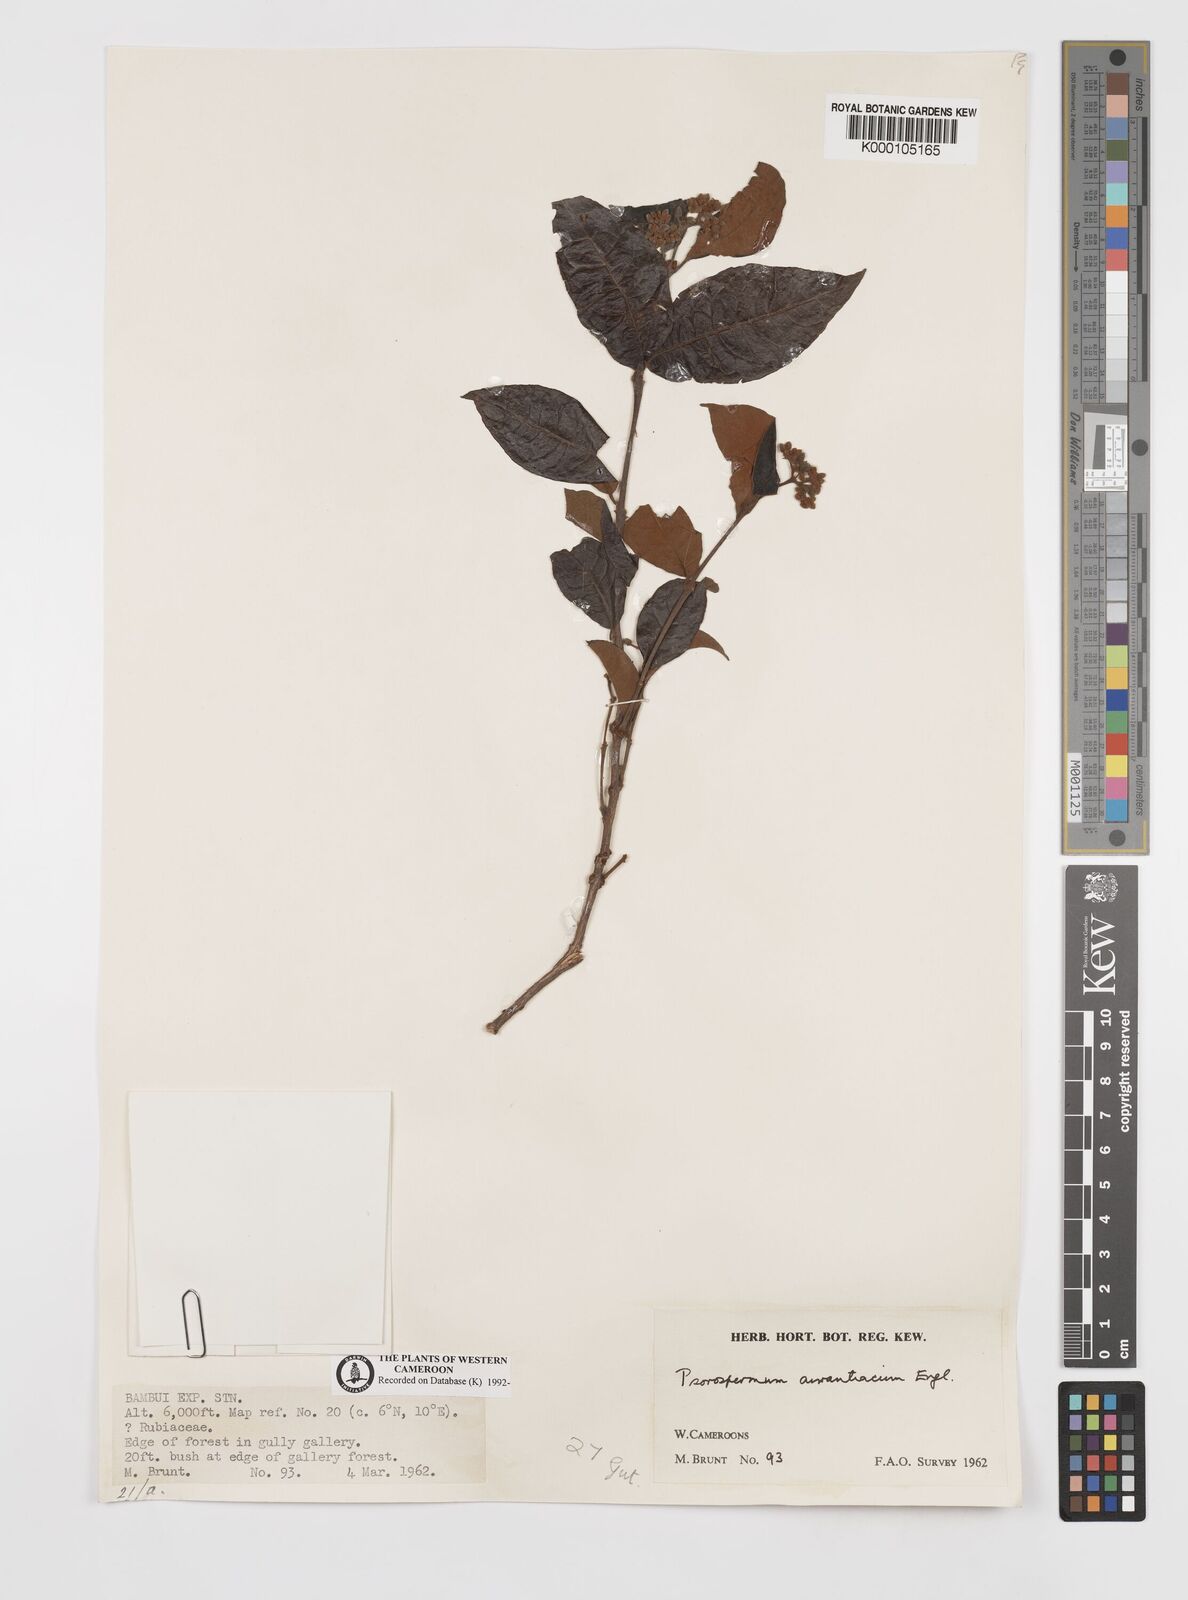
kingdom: Plantae
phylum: Tracheophyta
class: Magnoliopsida
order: Malpighiales
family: Hypericaceae
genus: Psorospermum
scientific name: Psorospermum aurantiacum
